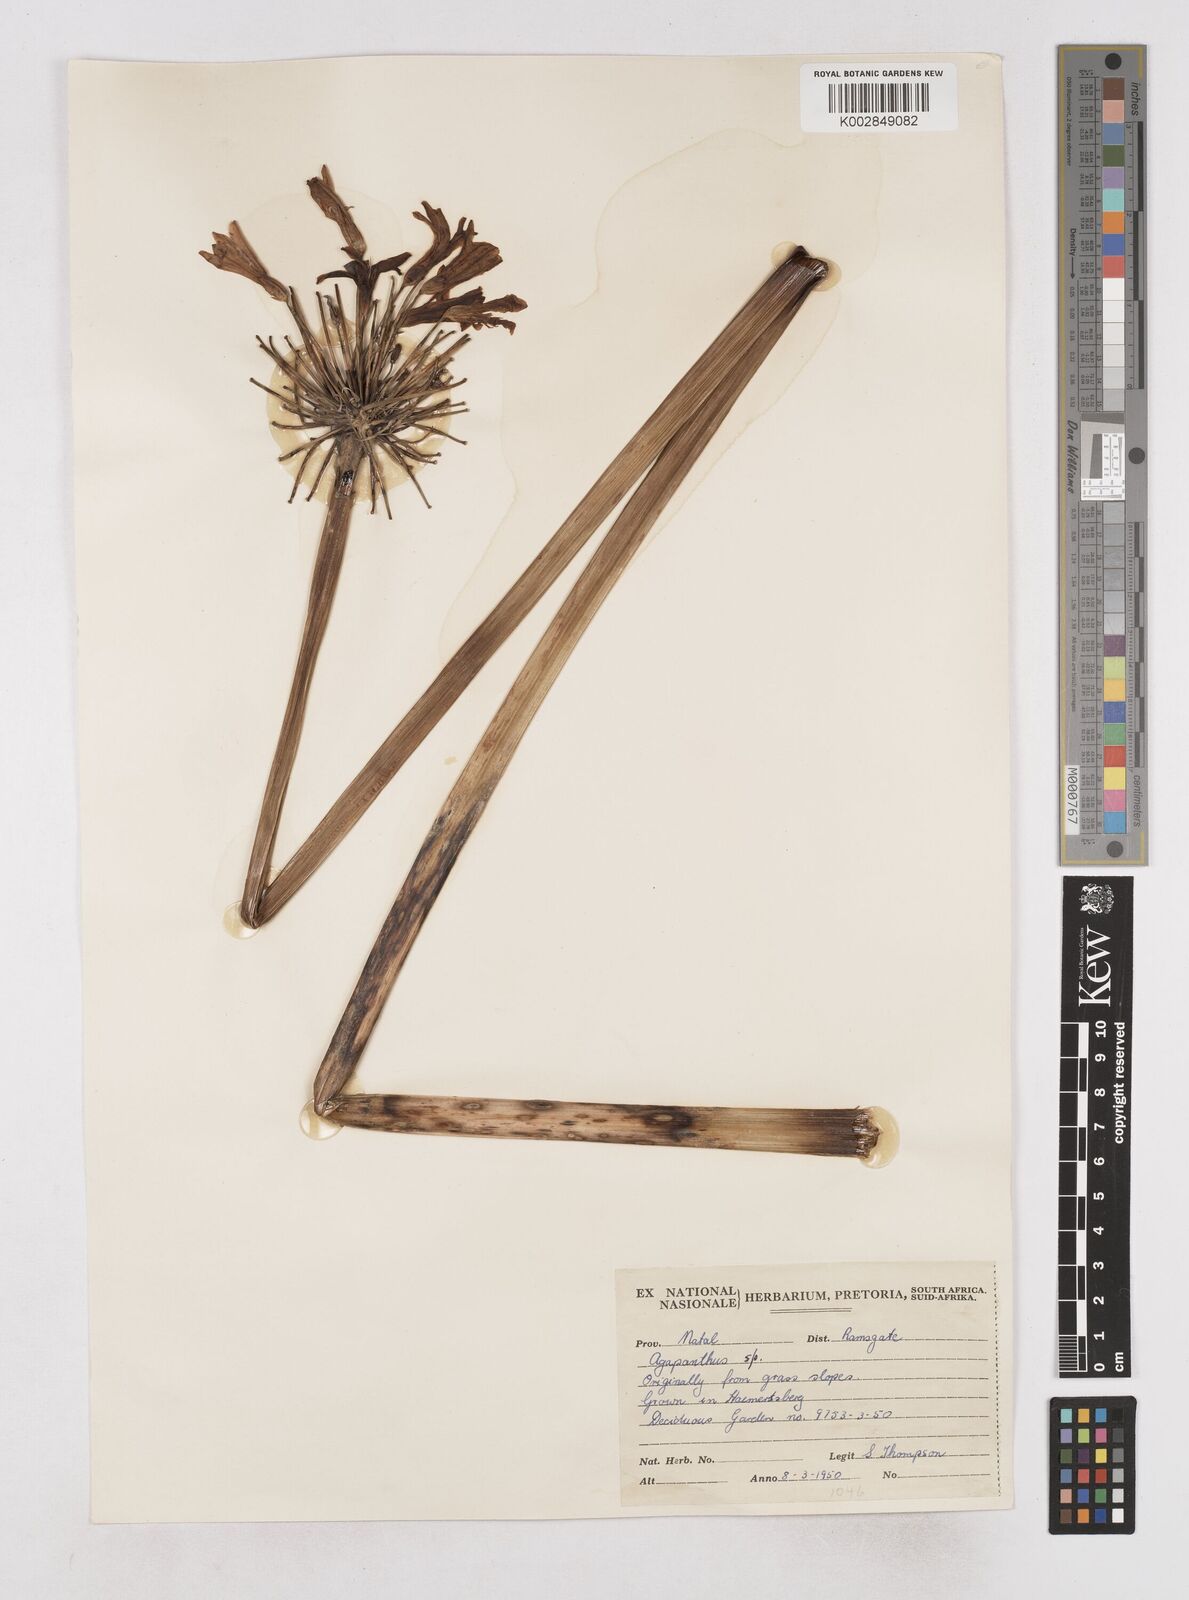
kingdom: Plantae
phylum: Tracheophyta
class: Liliopsida
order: Asparagales
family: Amaryllidaceae
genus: Agapanthus
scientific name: Agapanthus campanulatus
